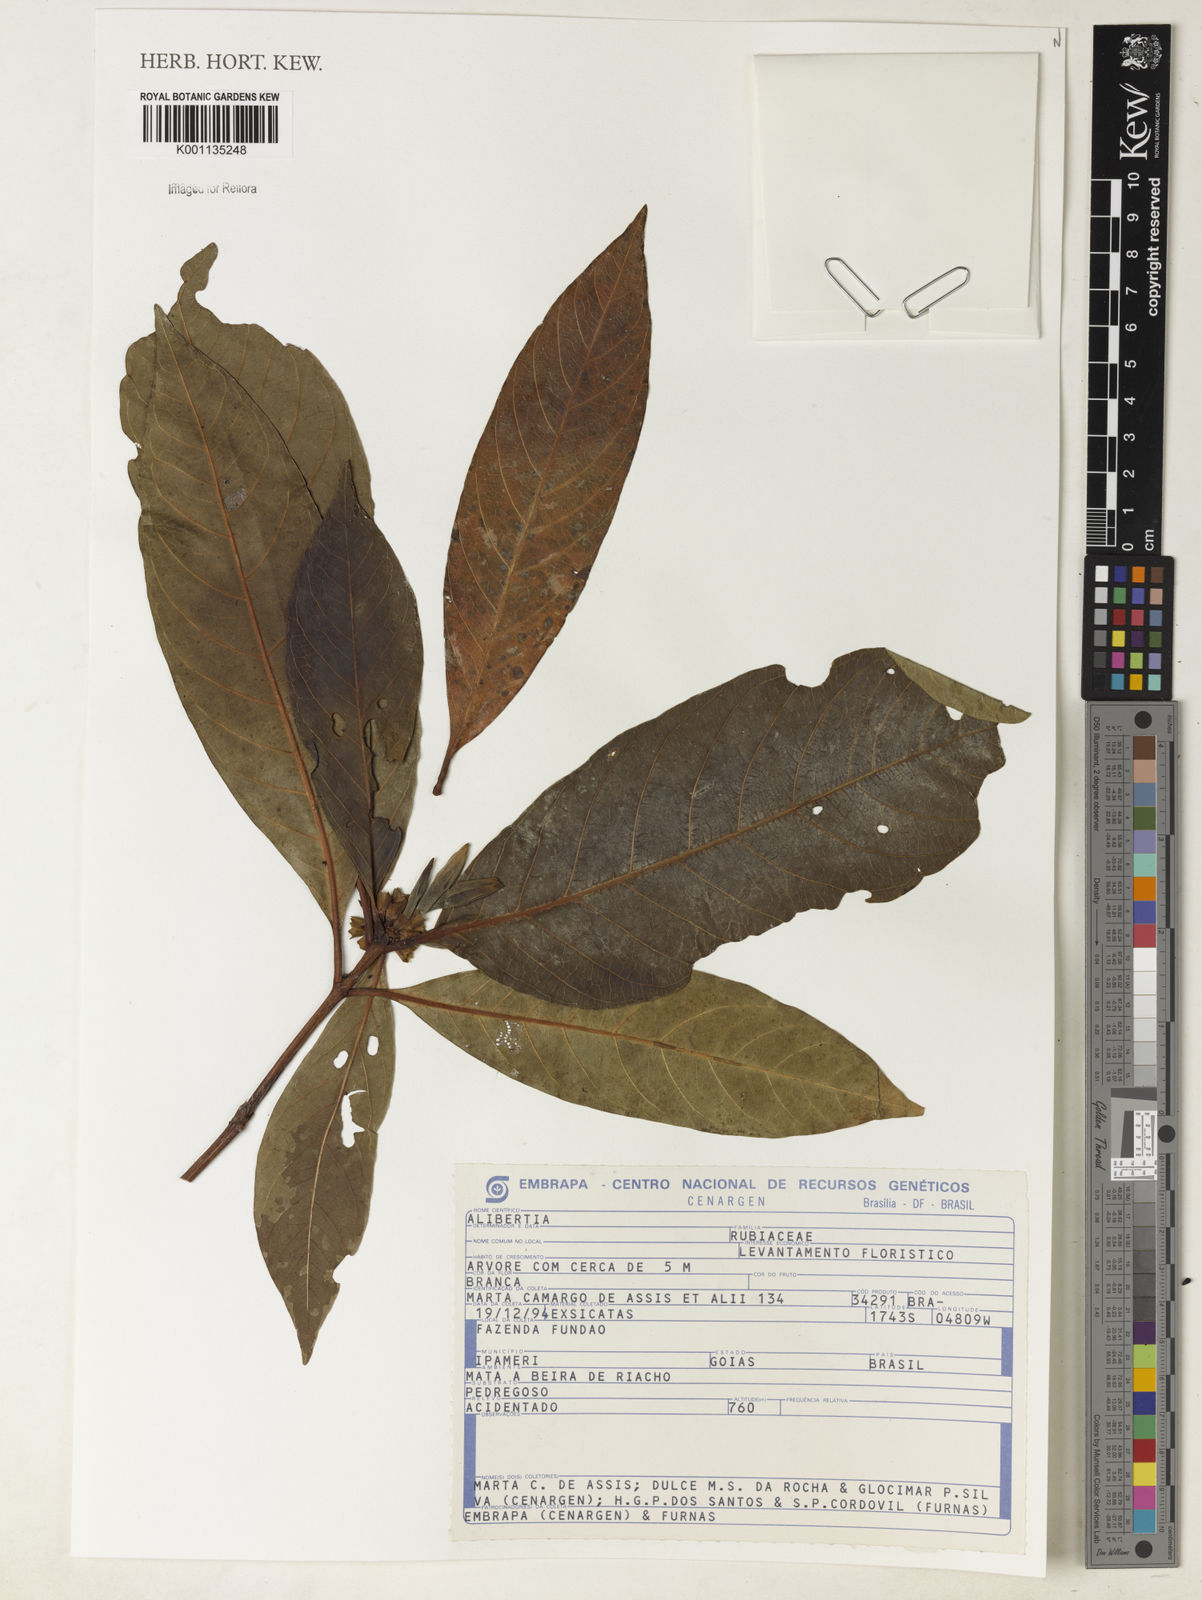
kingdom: Plantae
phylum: Tracheophyta
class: Magnoliopsida
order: Gentianales
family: Rubiaceae
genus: Alibertia
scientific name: Alibertia edulis
